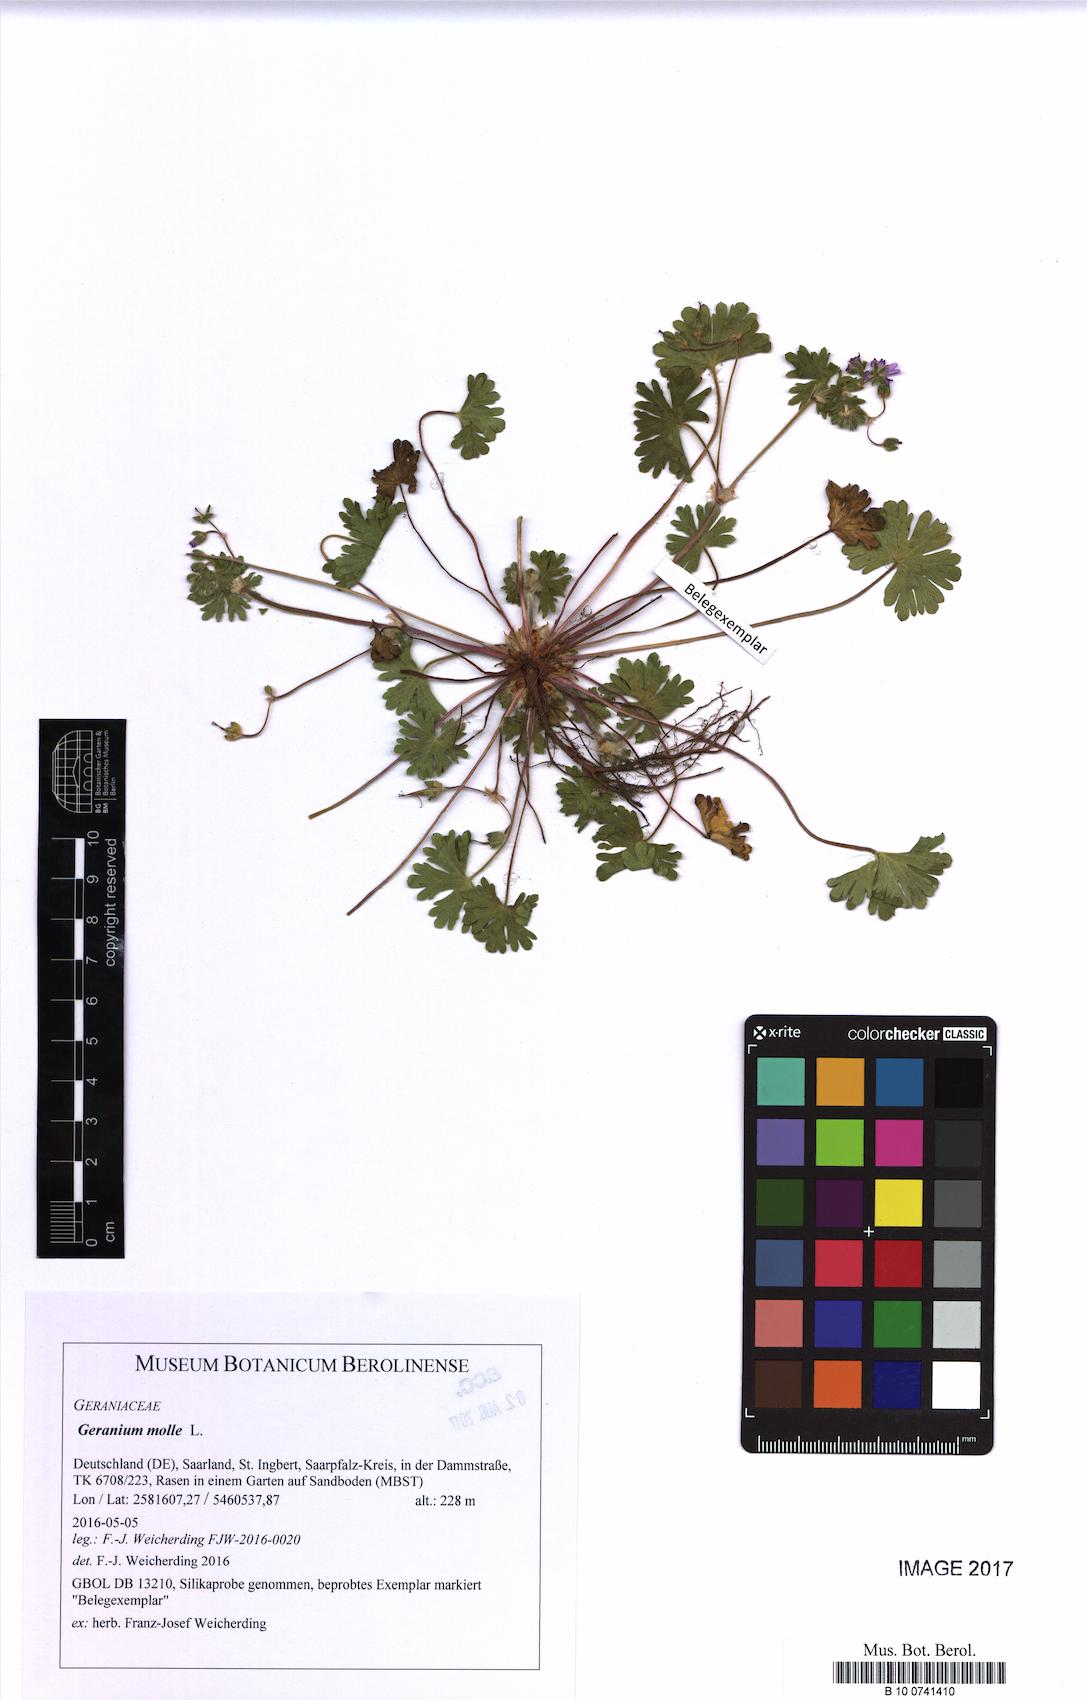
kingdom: Plantae
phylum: Tracheophyta
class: Magnoliopsida
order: Geraniales
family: Geraniaceae
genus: Geranium
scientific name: Geranium molle
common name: Dove's-foot crane's-bill
